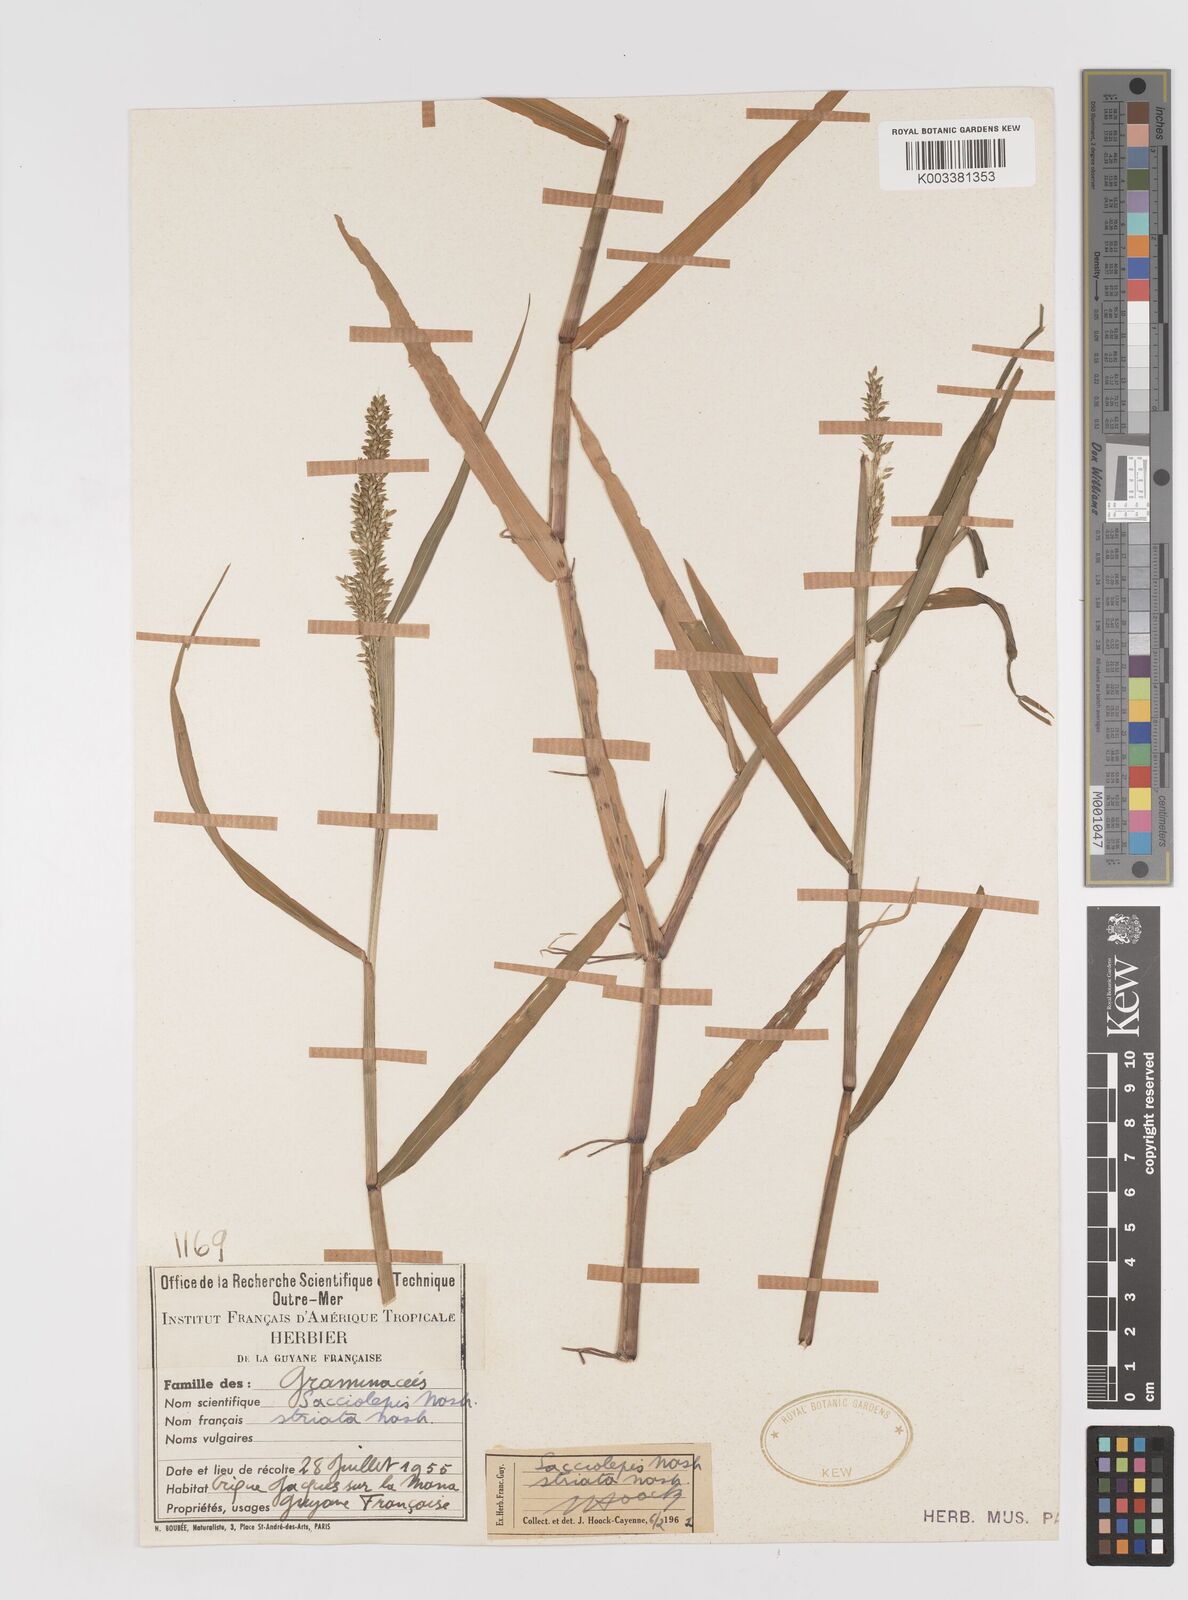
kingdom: Plantae
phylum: Tracheophyta
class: Liliopsida
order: Poales
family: Poaceae
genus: Sacciolepis
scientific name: Sacciolepis striata
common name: American cupscale
